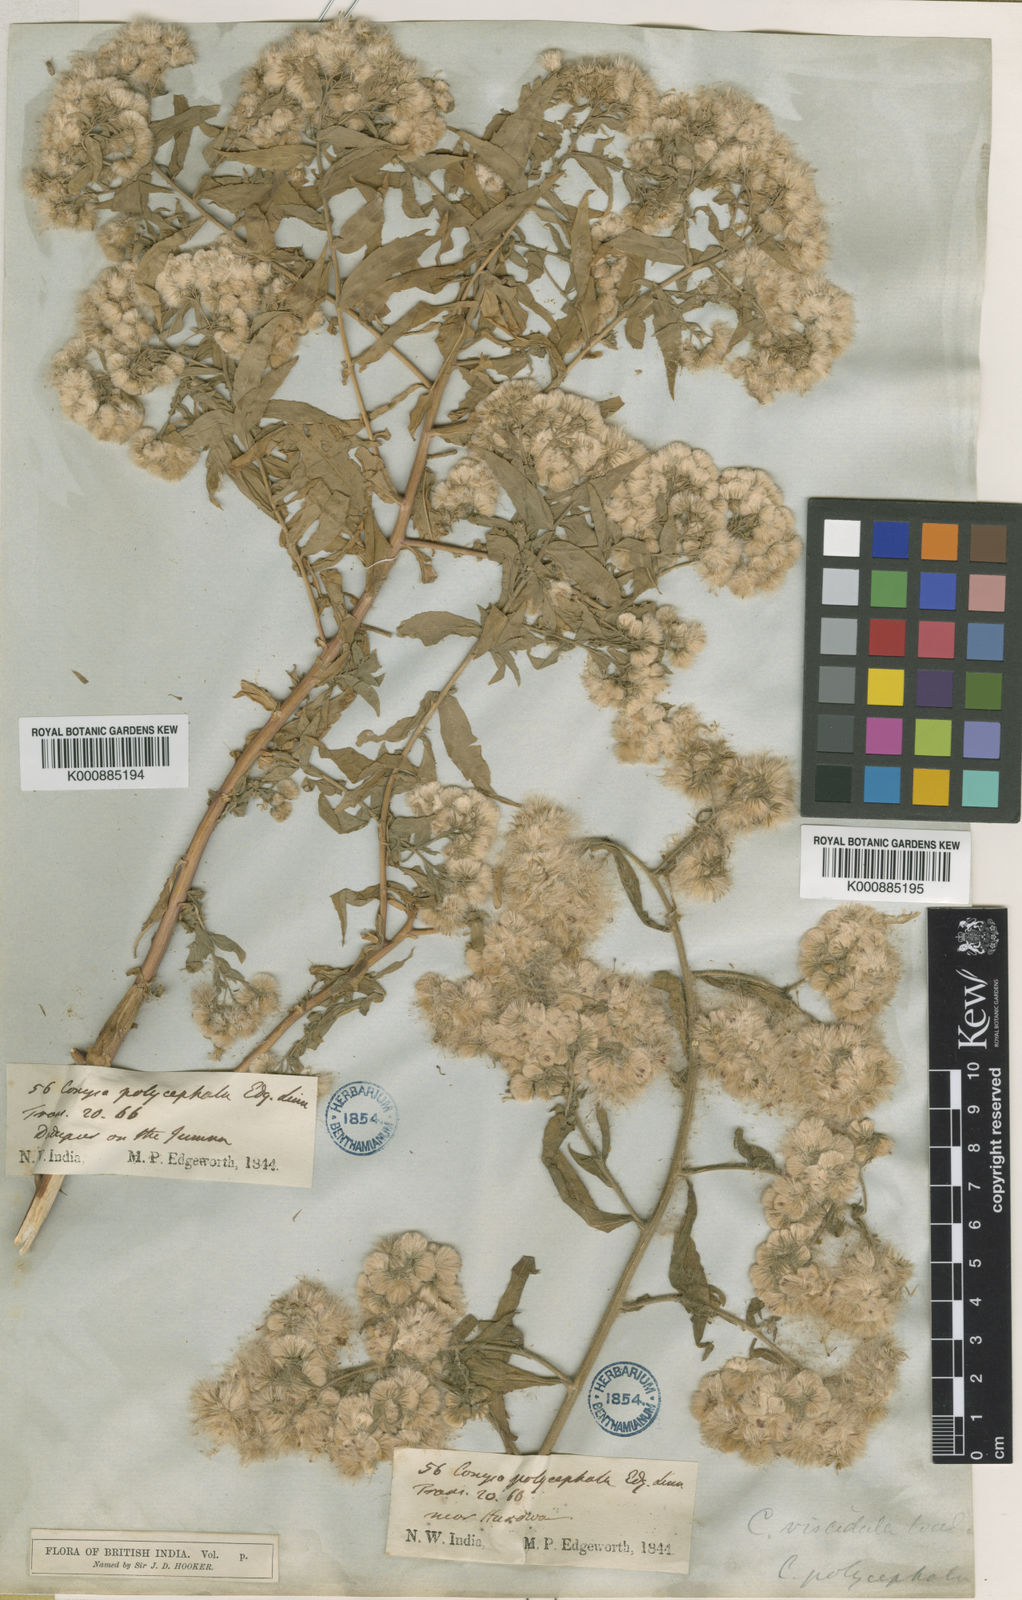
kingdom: Plantae
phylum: Tracheophyta
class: Magnoliopsida
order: Asterales
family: Asteraceae
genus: Eschenbachia
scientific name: Eschenbachia leucantha
